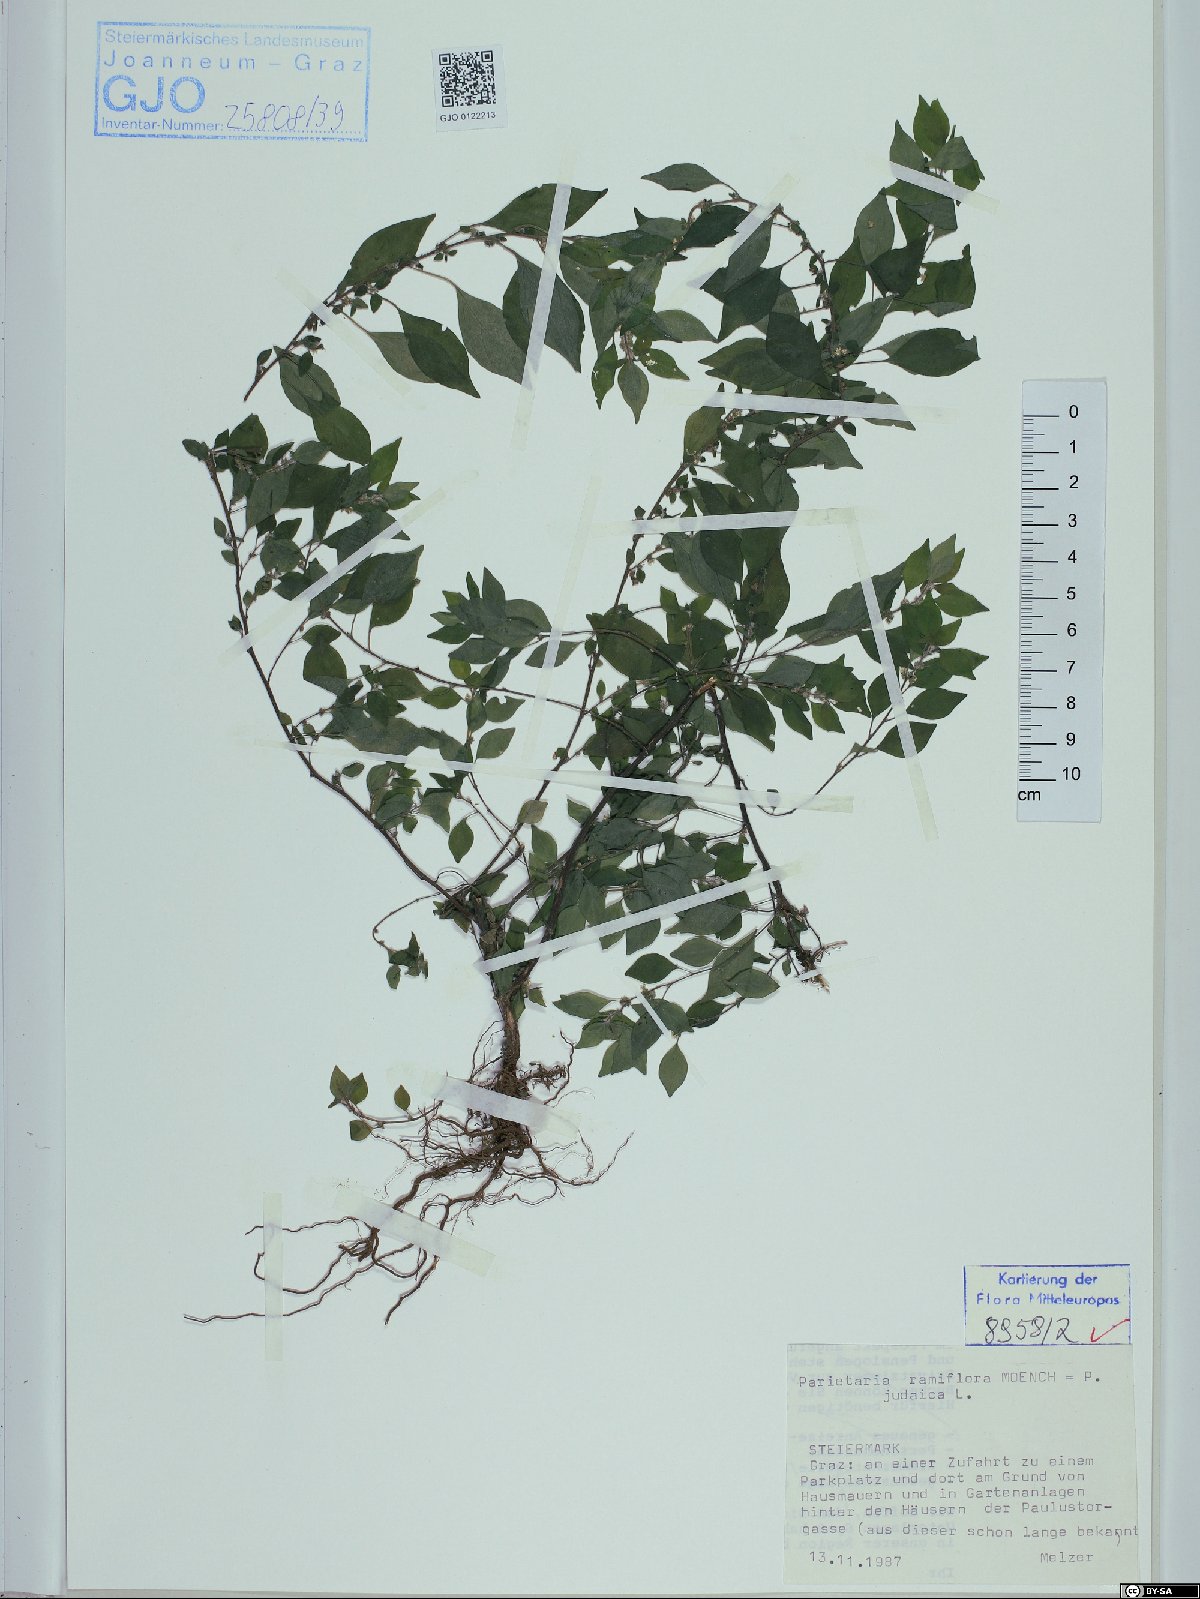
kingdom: Plantae
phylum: Tracheophyta
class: Magnoliopsida
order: Rosales
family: Urticaceae
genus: Parietaria
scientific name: Parietaria judaica
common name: Pellitory-of-the-wall
